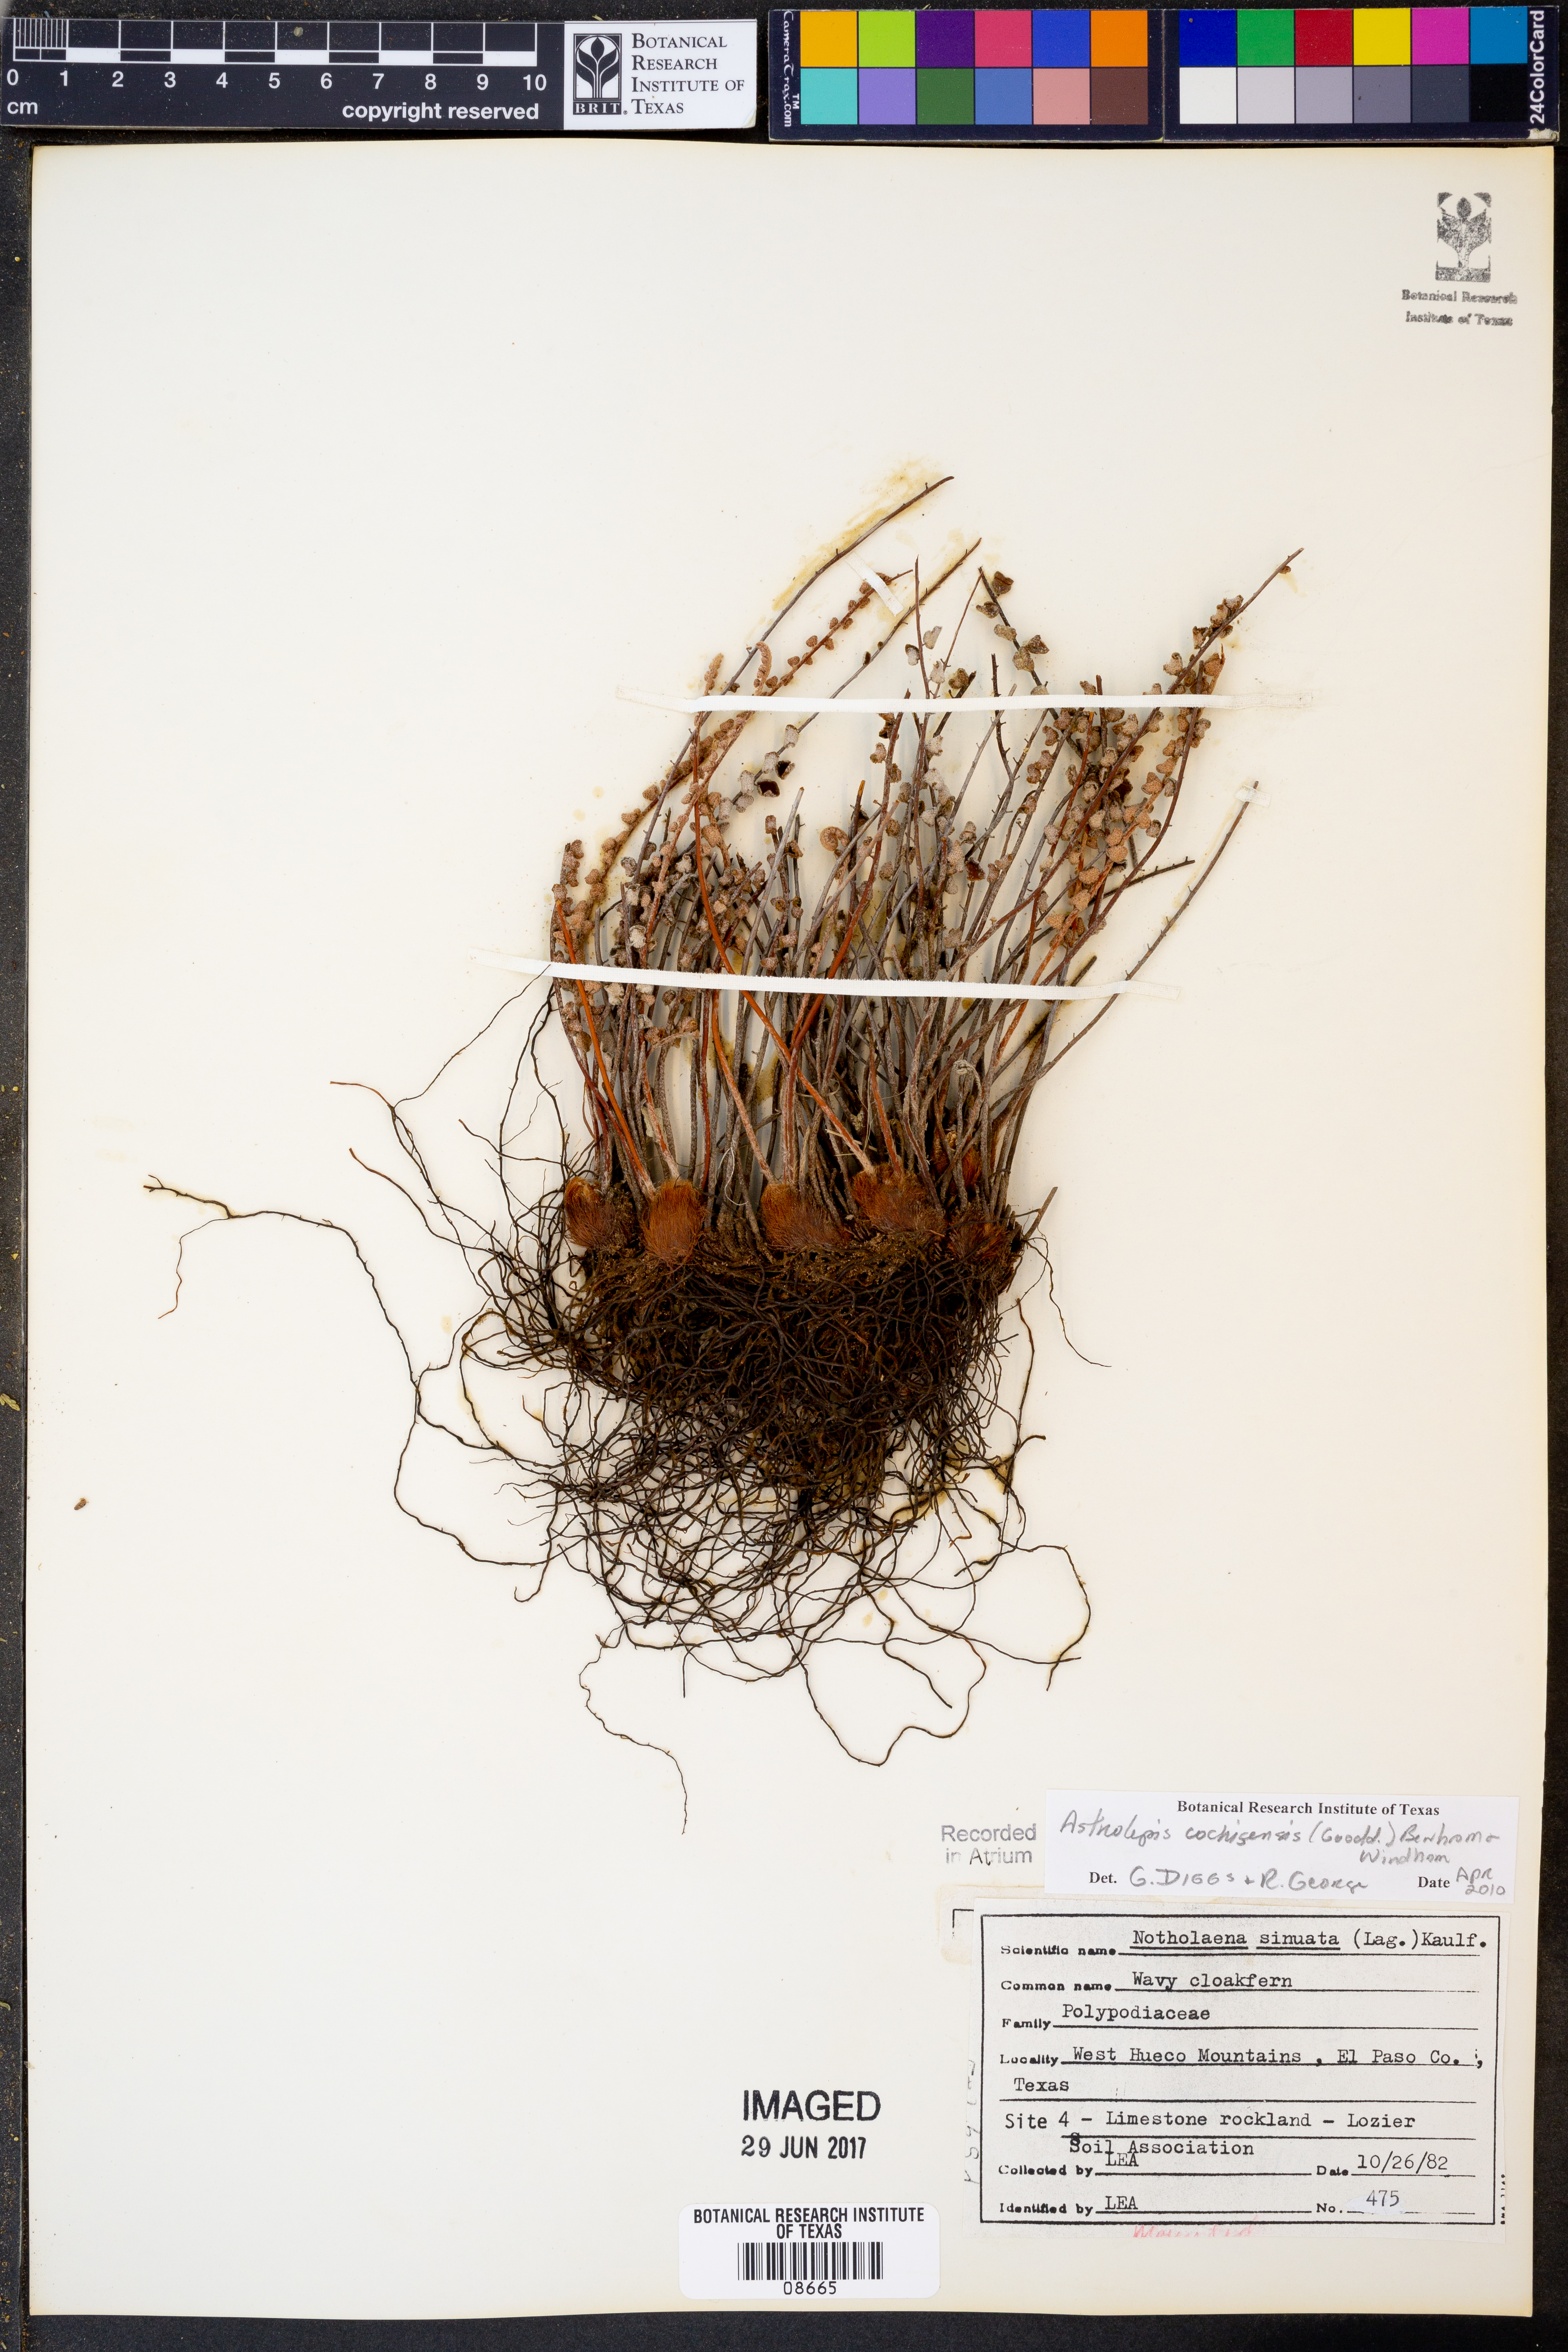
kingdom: Plantae
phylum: Tracheophyta
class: Polypodiopsida
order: Polypodiales
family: Pteridaceae
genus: Astrolepis
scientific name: Astrolepis cochisensis
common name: Scaly cloak fern
